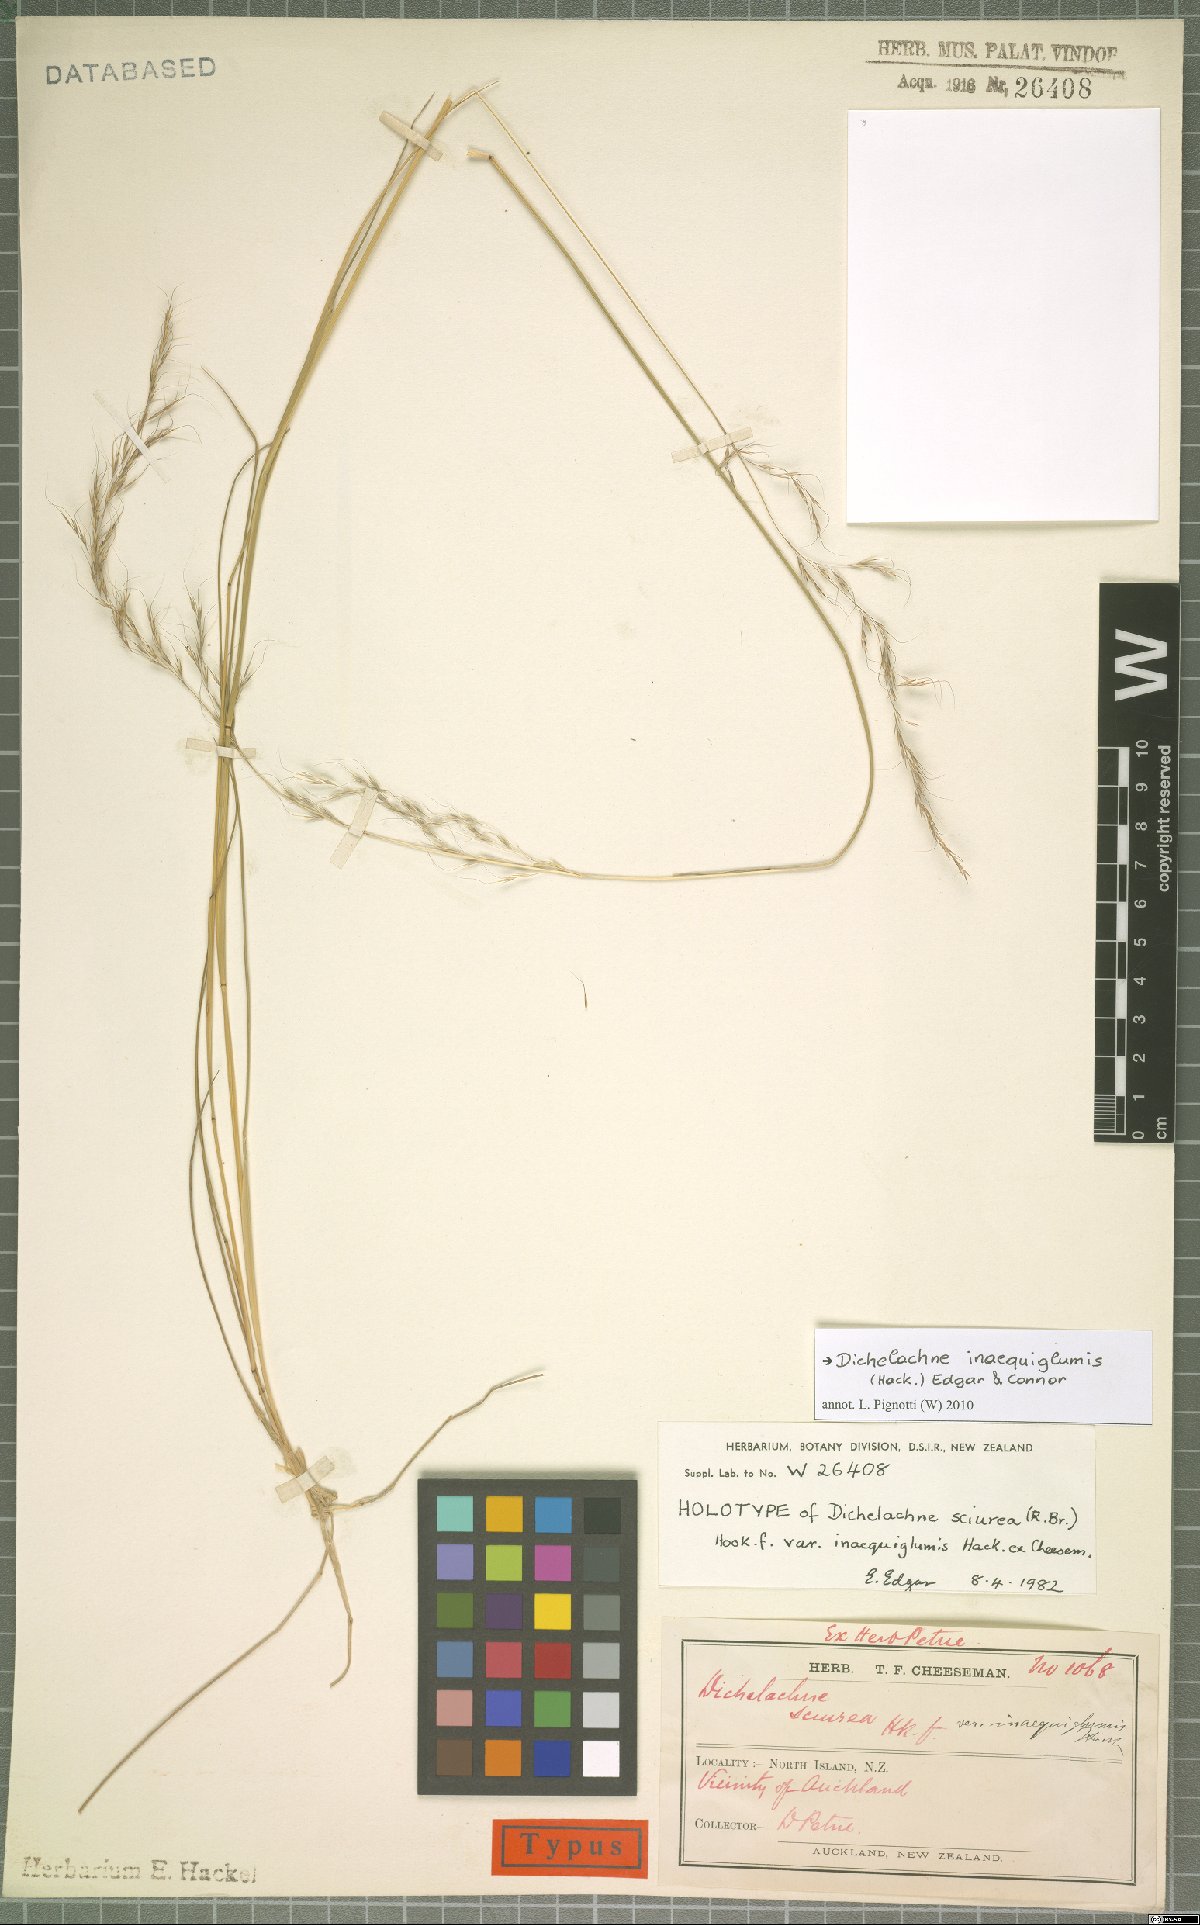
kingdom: Plantae
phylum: Tracheophyta
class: Liliopsida
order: Poales
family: Poaceae
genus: Dichelachne
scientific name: Dichelachne inaequiglumis
